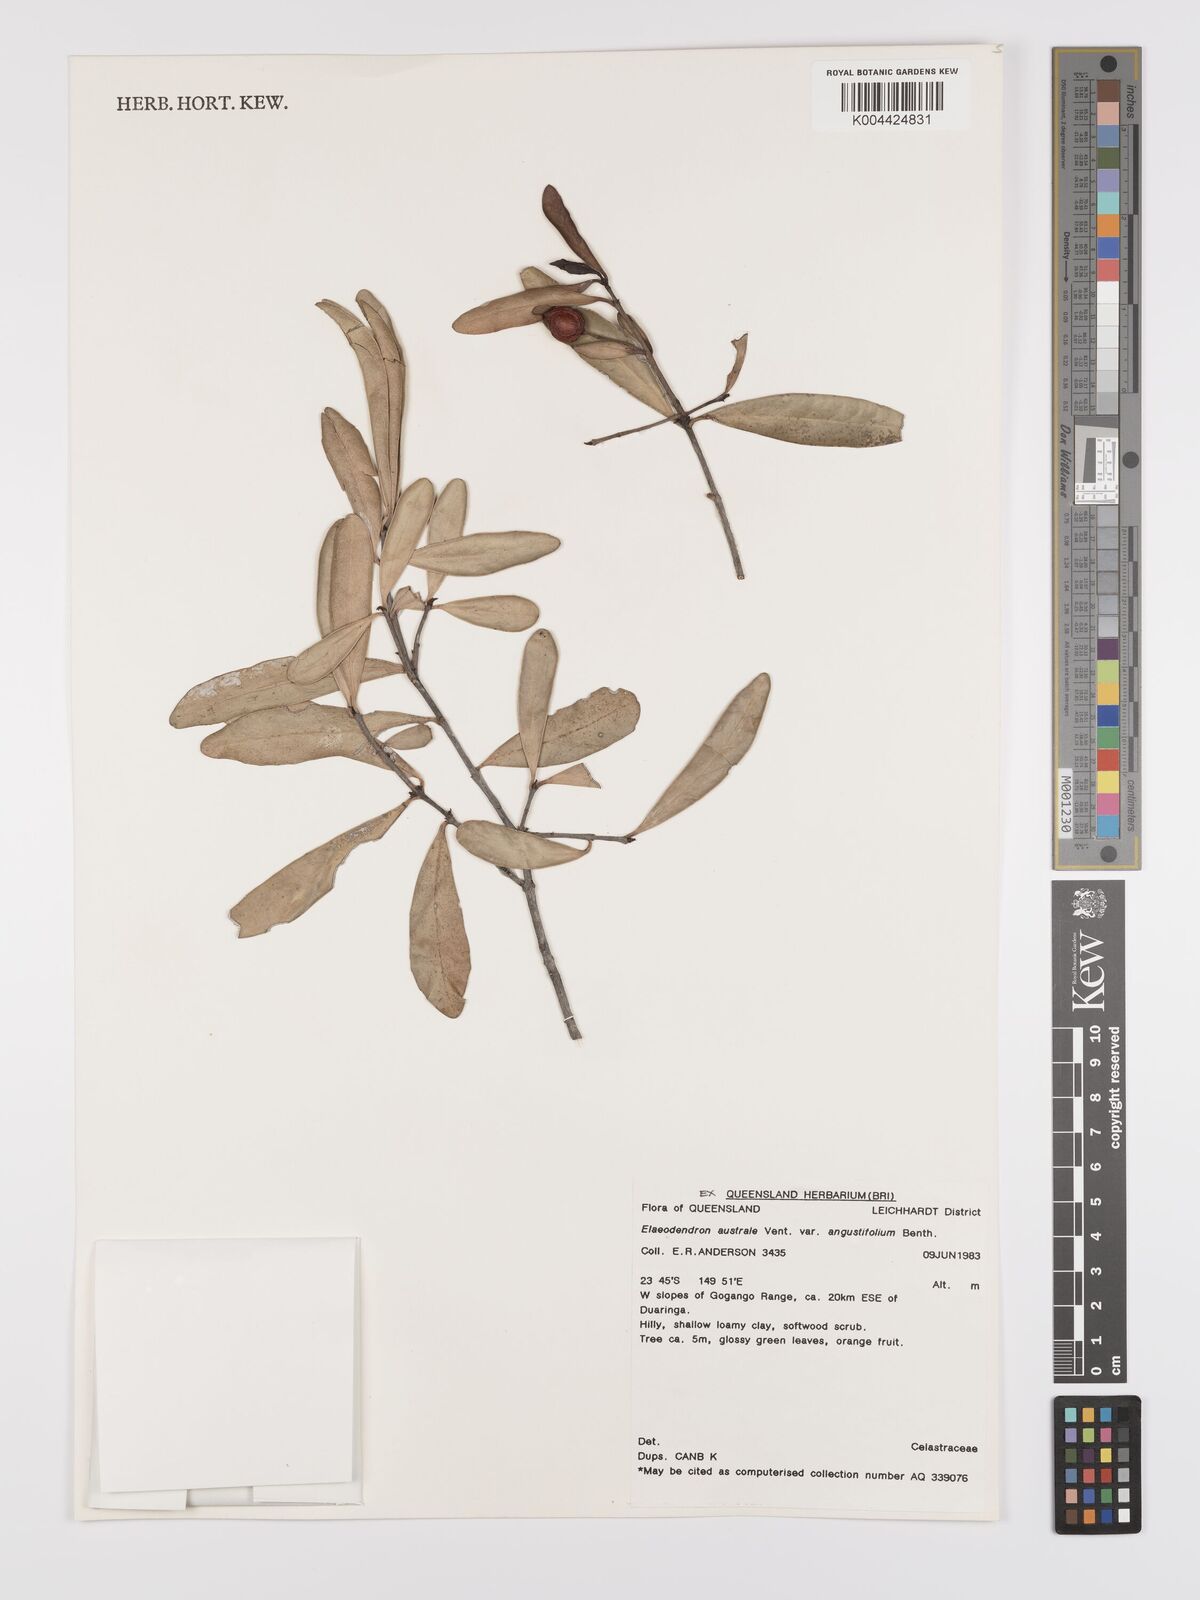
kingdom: Plantae
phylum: Tracheophyta
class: Magnoliopsida
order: Celastrales
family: Celastraceae
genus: Elaeodendron
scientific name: Elaeodendron australe
